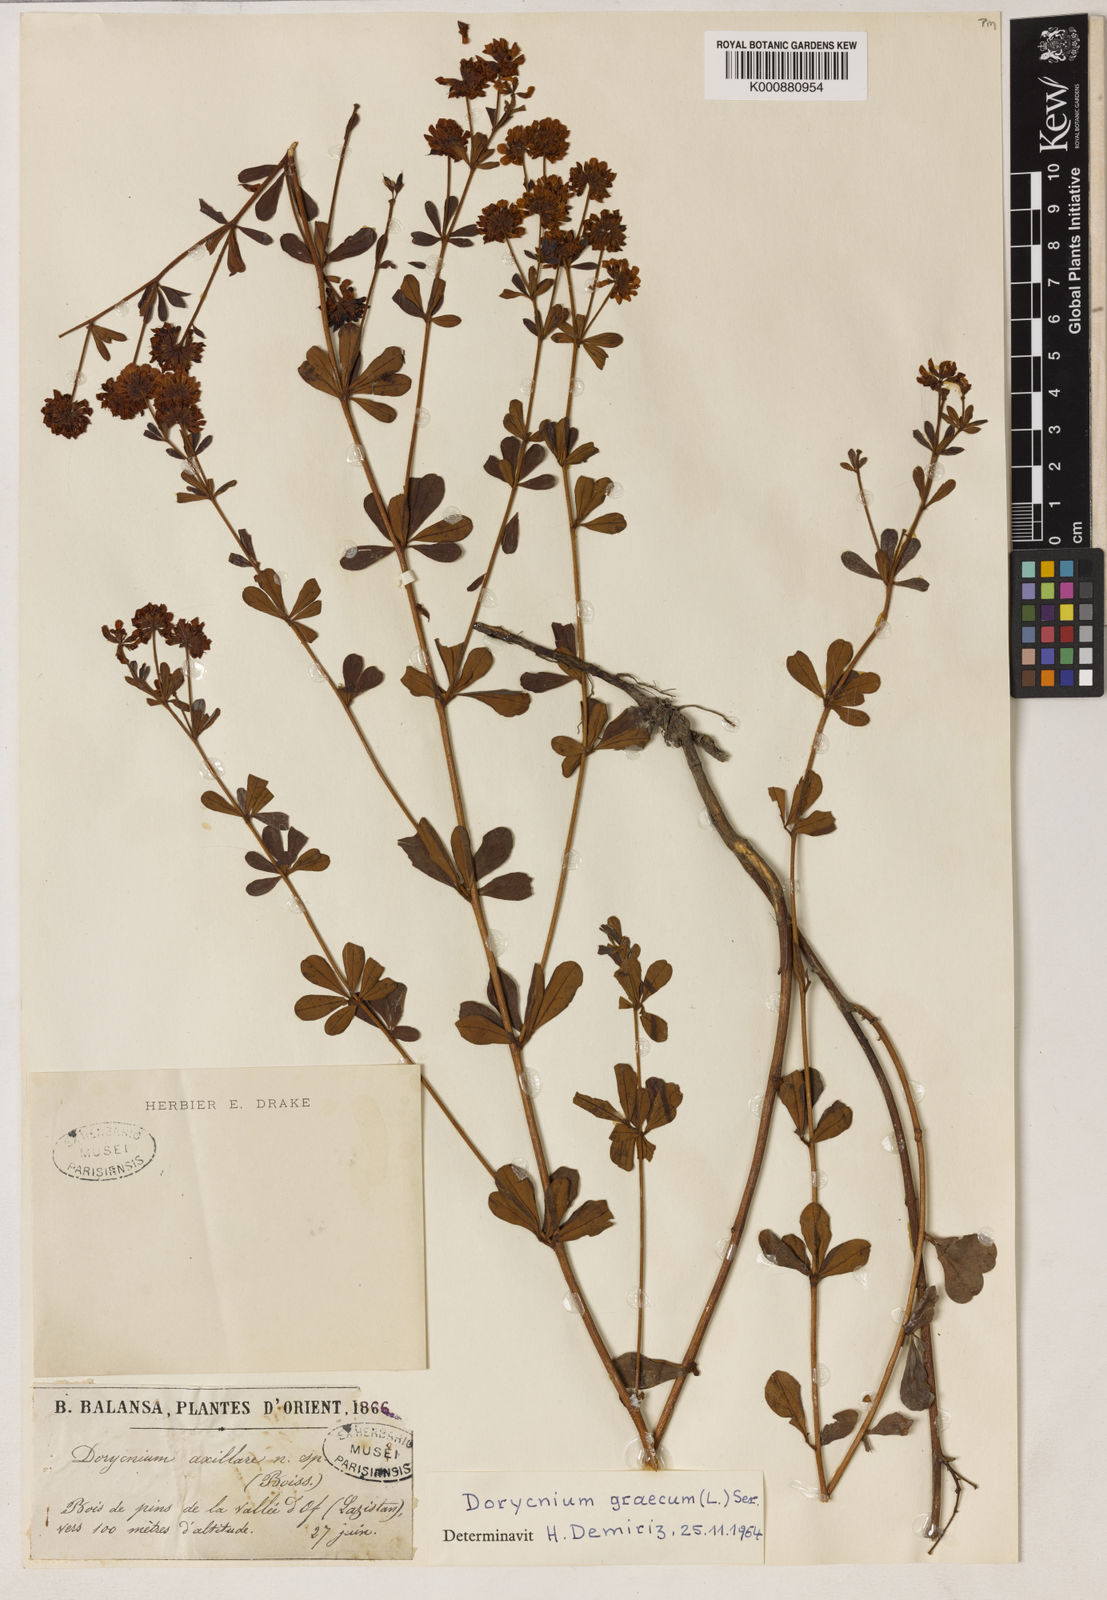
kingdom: Plantae
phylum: Tracheophyta
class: Magnoliopsida
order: Fabales
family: Fabaceae
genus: Lotus
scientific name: Lotus graecus
